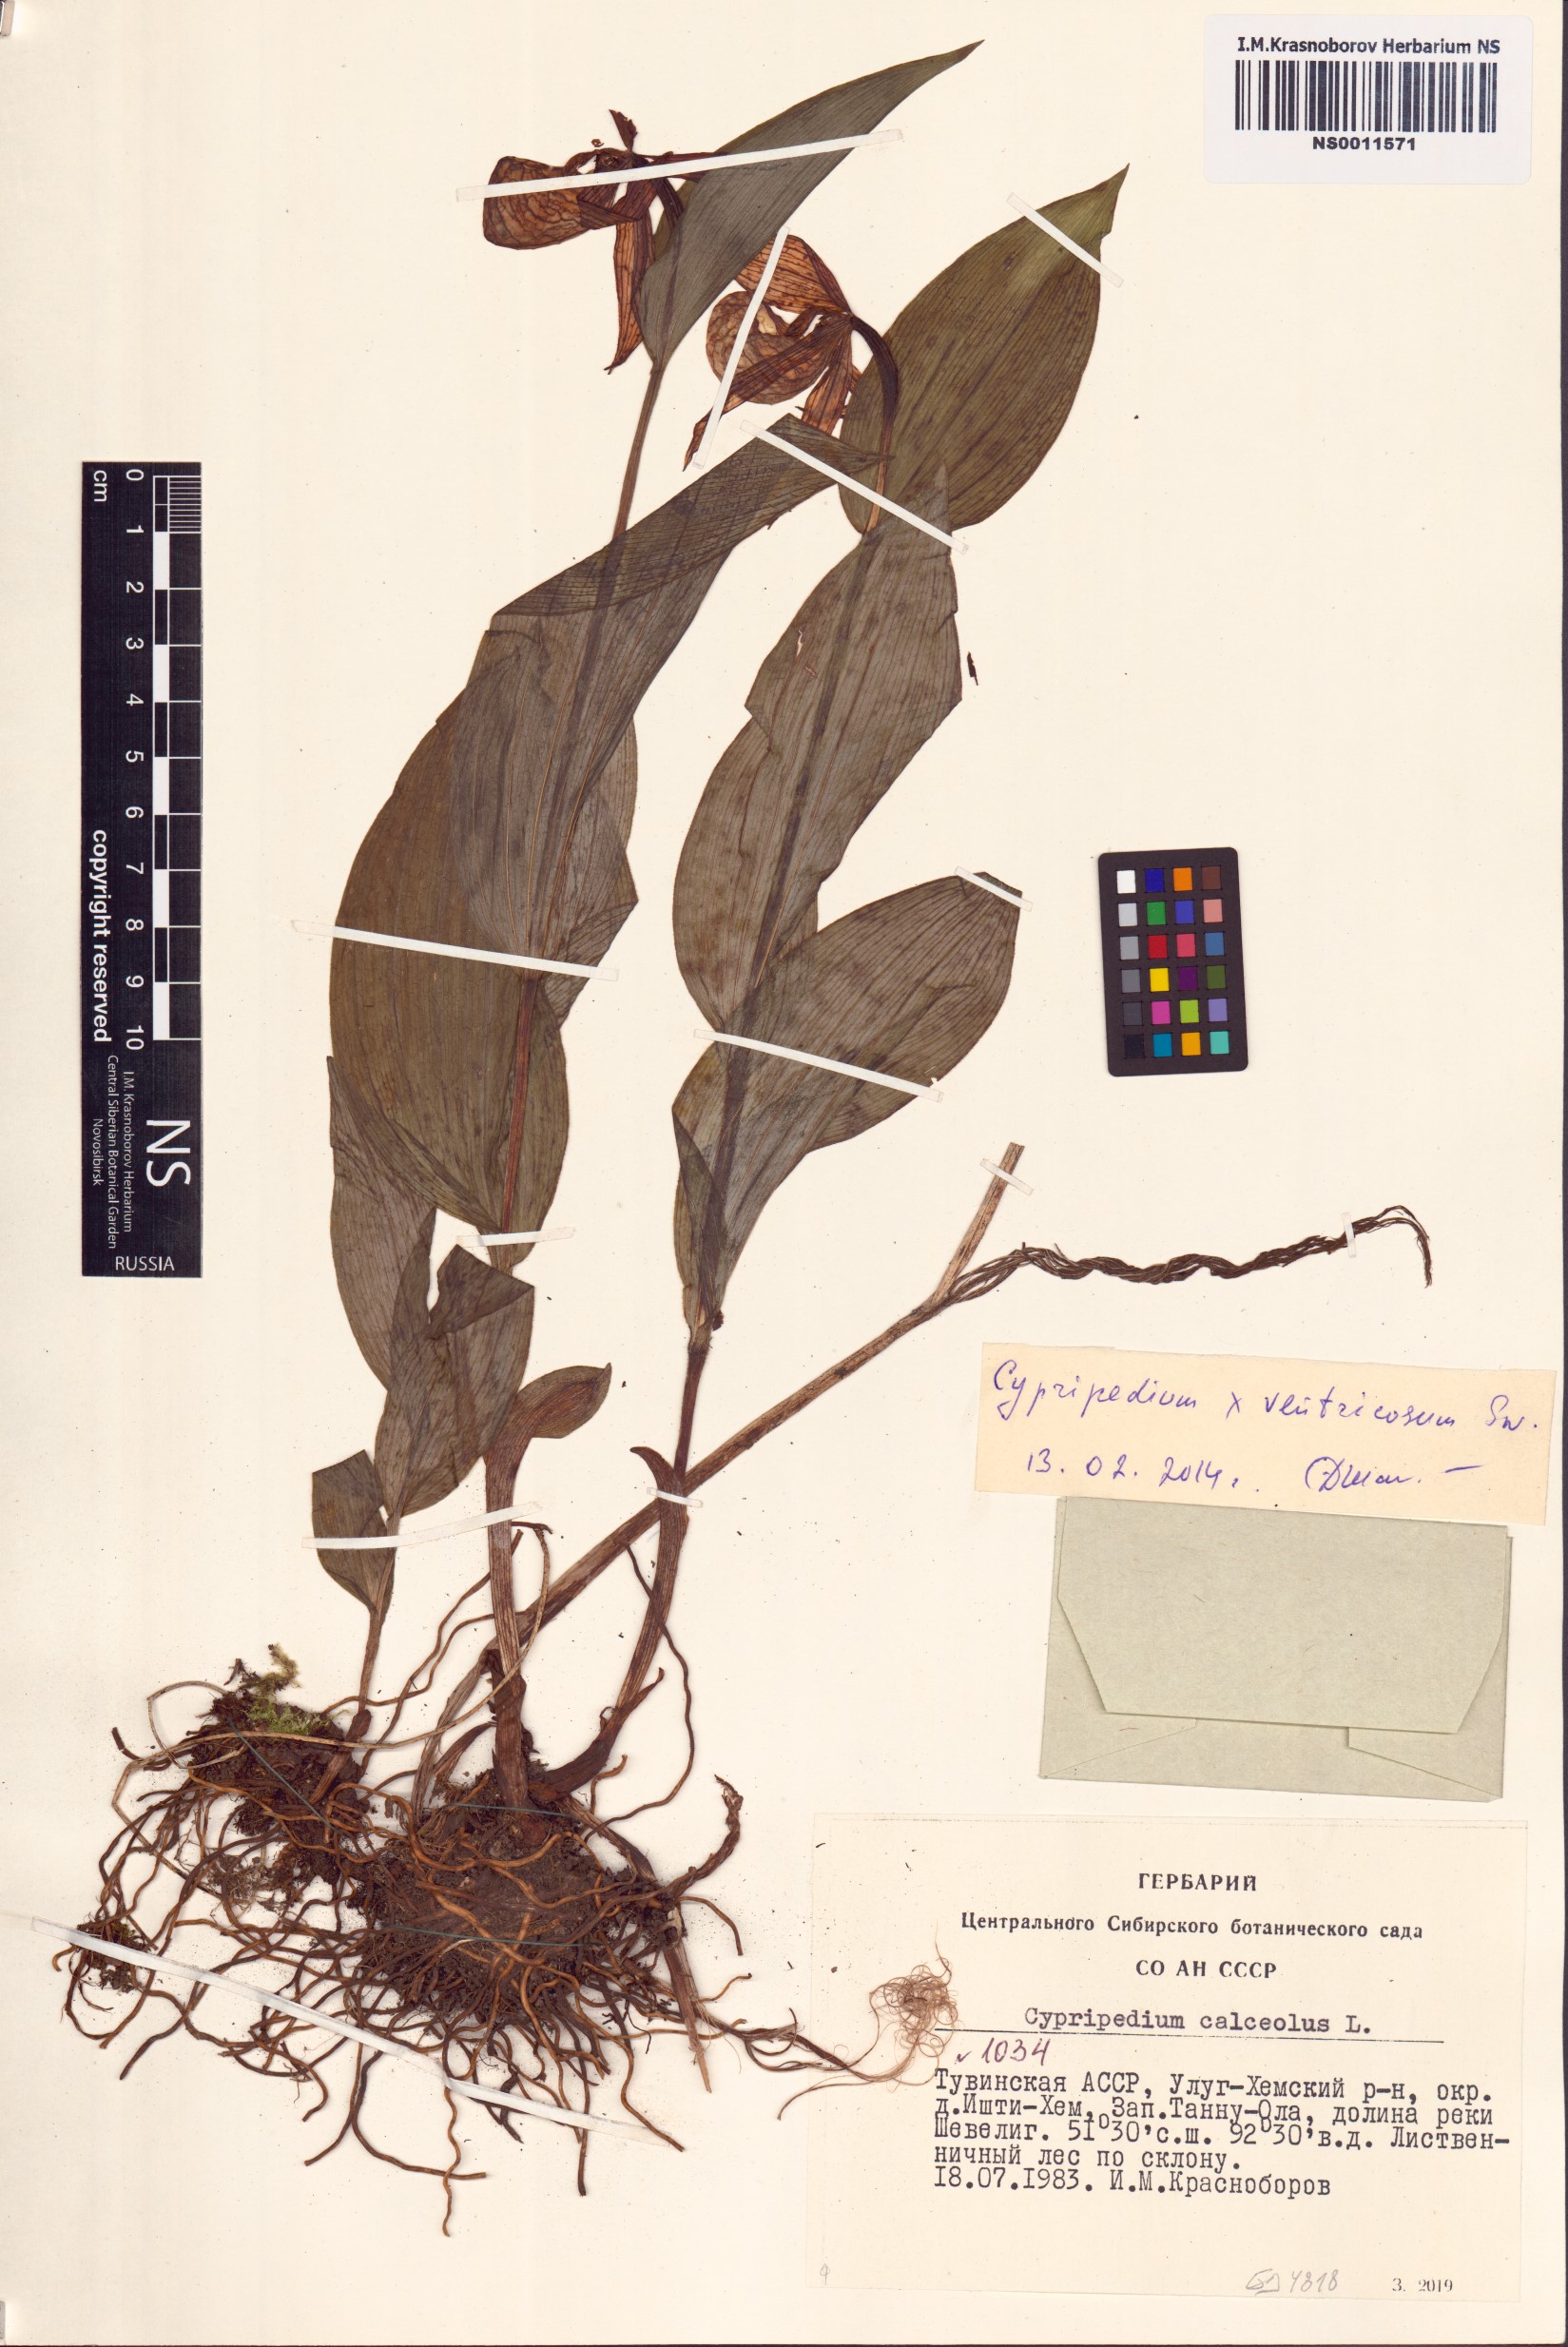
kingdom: Plantae
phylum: Tracheophyta
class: Liliopsida
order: Asparagales
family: Orchidaceae
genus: Cypripedium
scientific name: Cypripedium ventricosum
